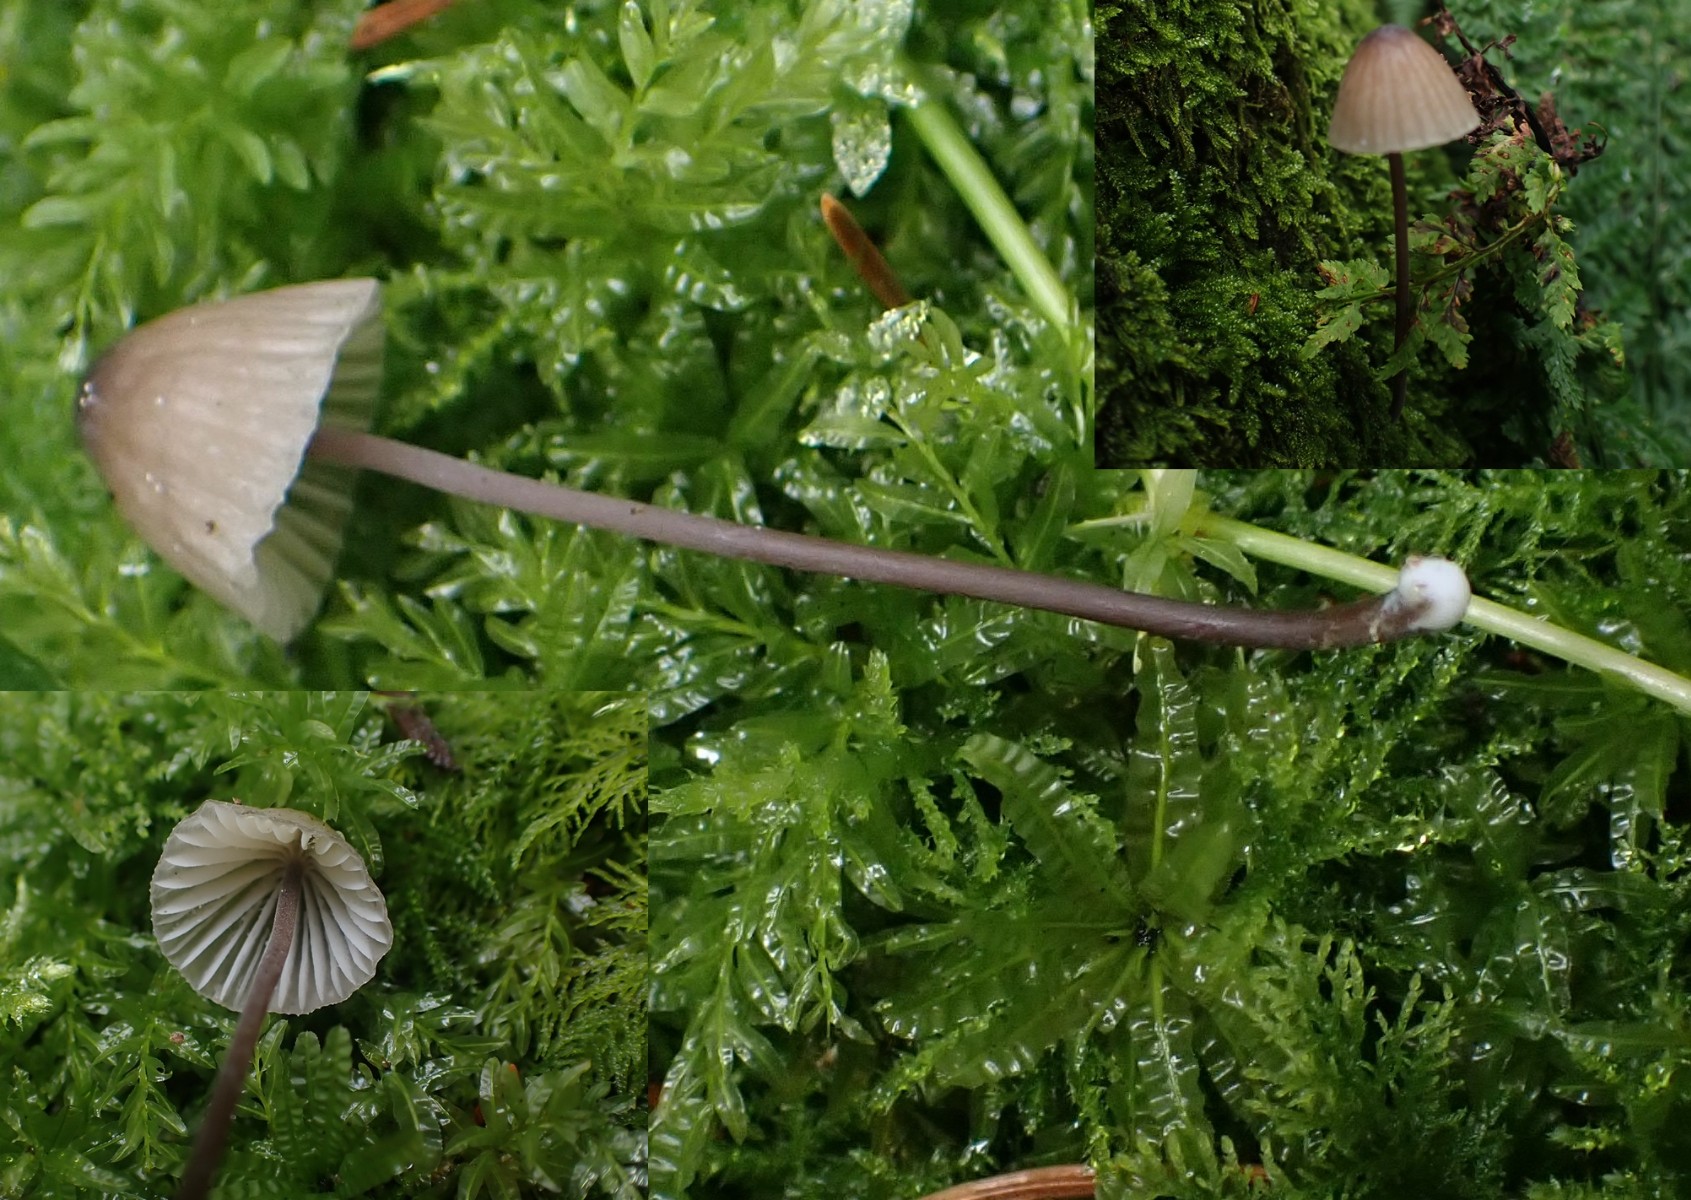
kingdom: Fungi
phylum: Basidiomycota
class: Agaricomycetes
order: Agaricales
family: Mycenaceae
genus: Mycena
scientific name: Mycena galopus
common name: hvidmælket huesvamp
